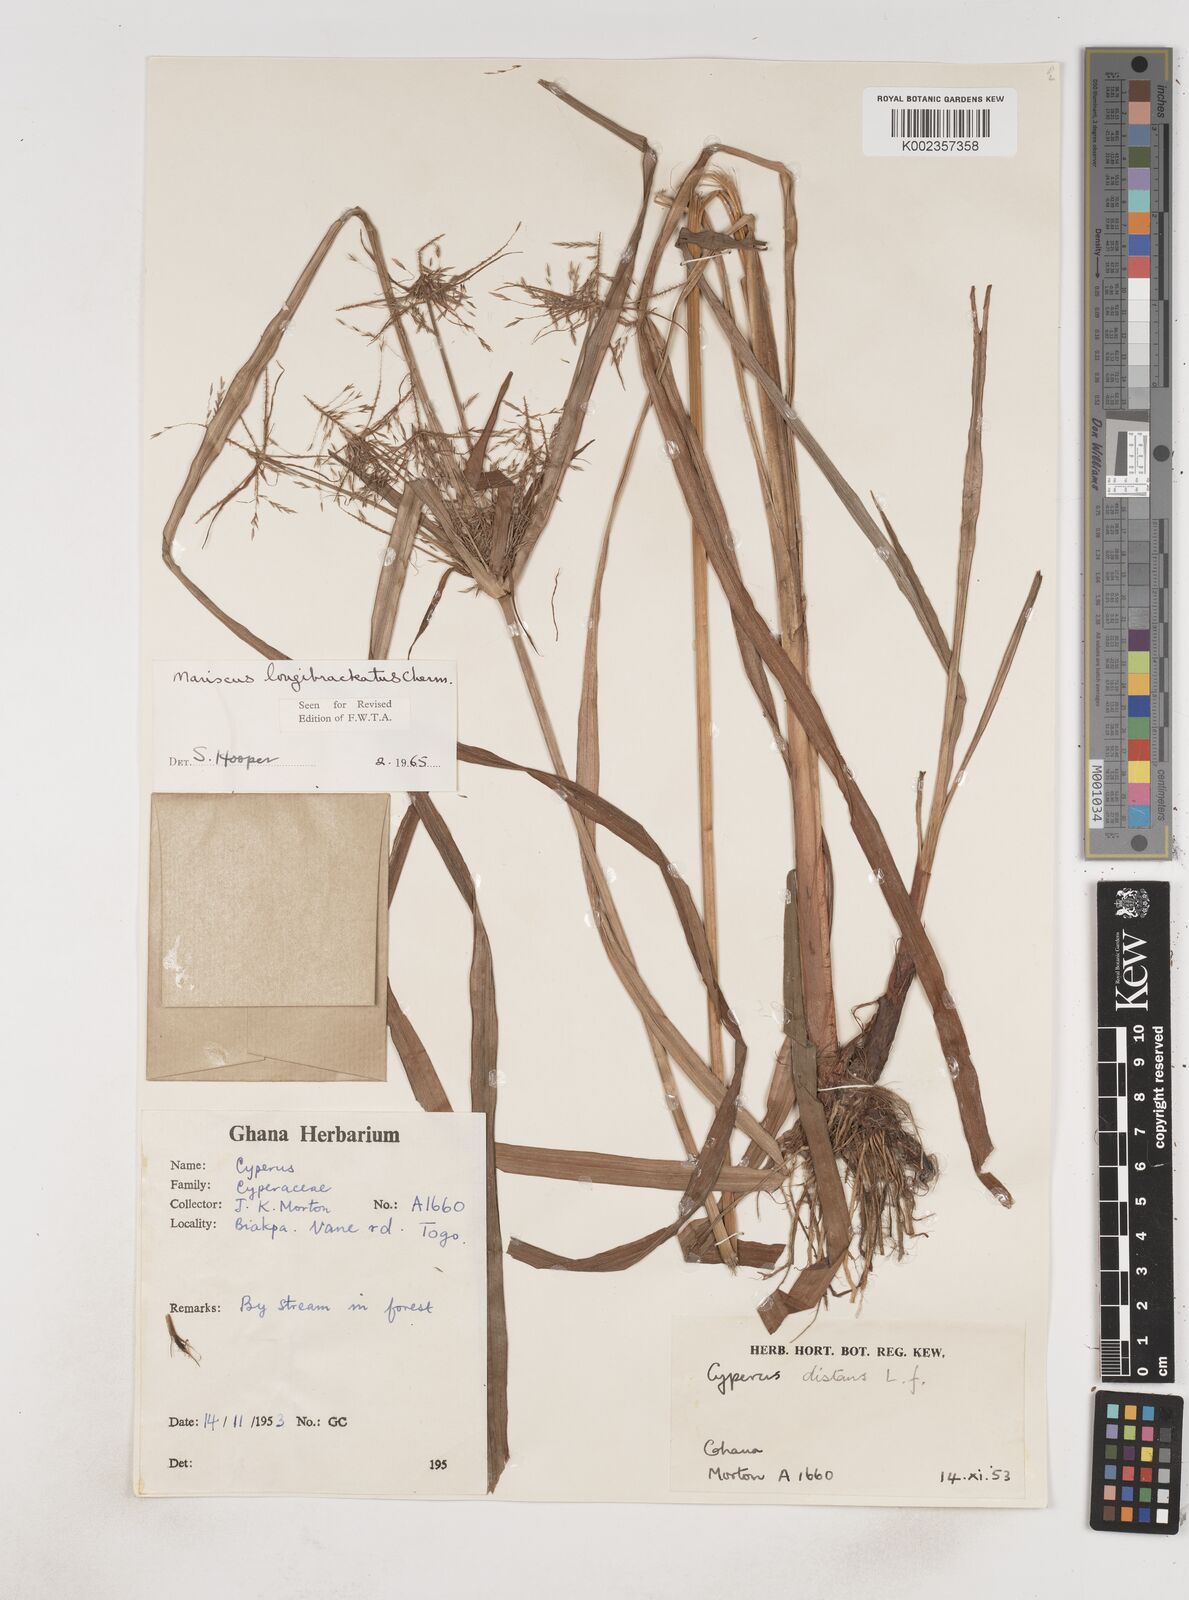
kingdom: Plantae
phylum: Tracheophyta
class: Liliopsida
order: Poales
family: Cyperaceae
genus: Cyperus
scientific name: Cyperus distans
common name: Slender cyperus
